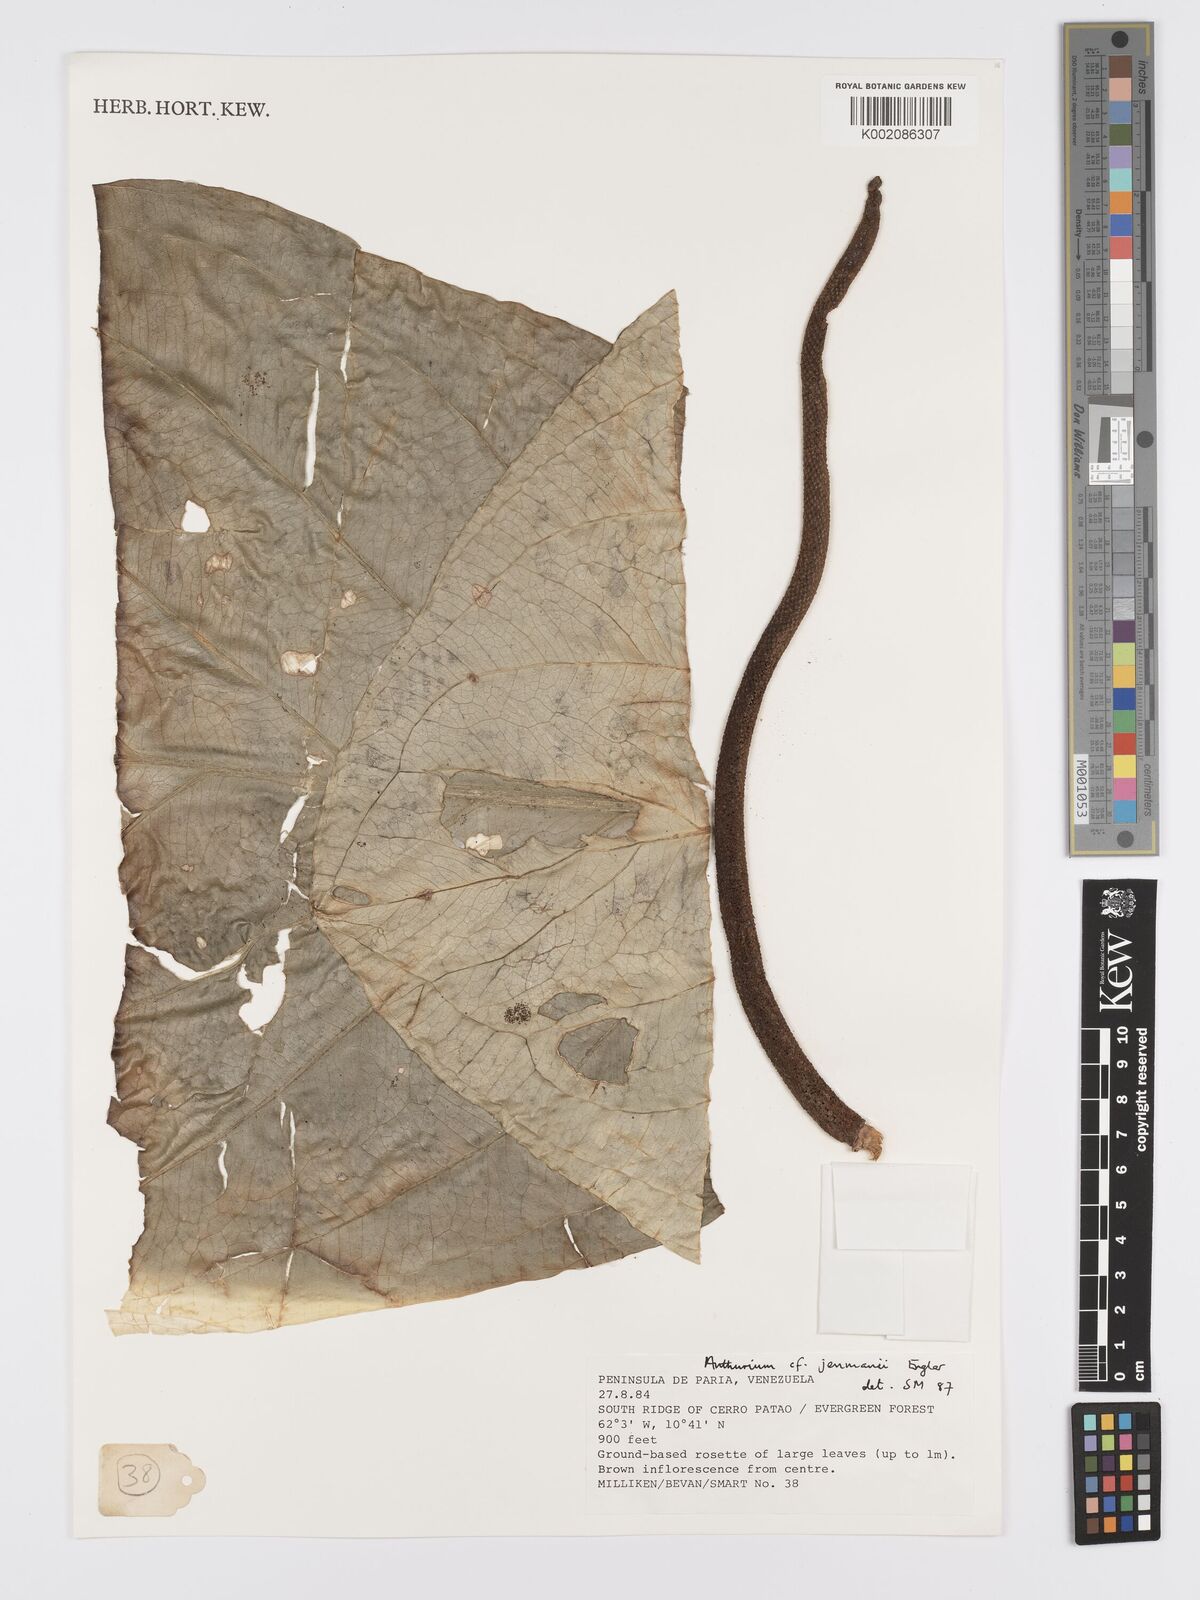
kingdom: Plantae
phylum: Tracheophyta
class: Liliopsida
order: Alismatales
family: Araceae
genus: Anthurium
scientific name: Anthurium jenmanii
